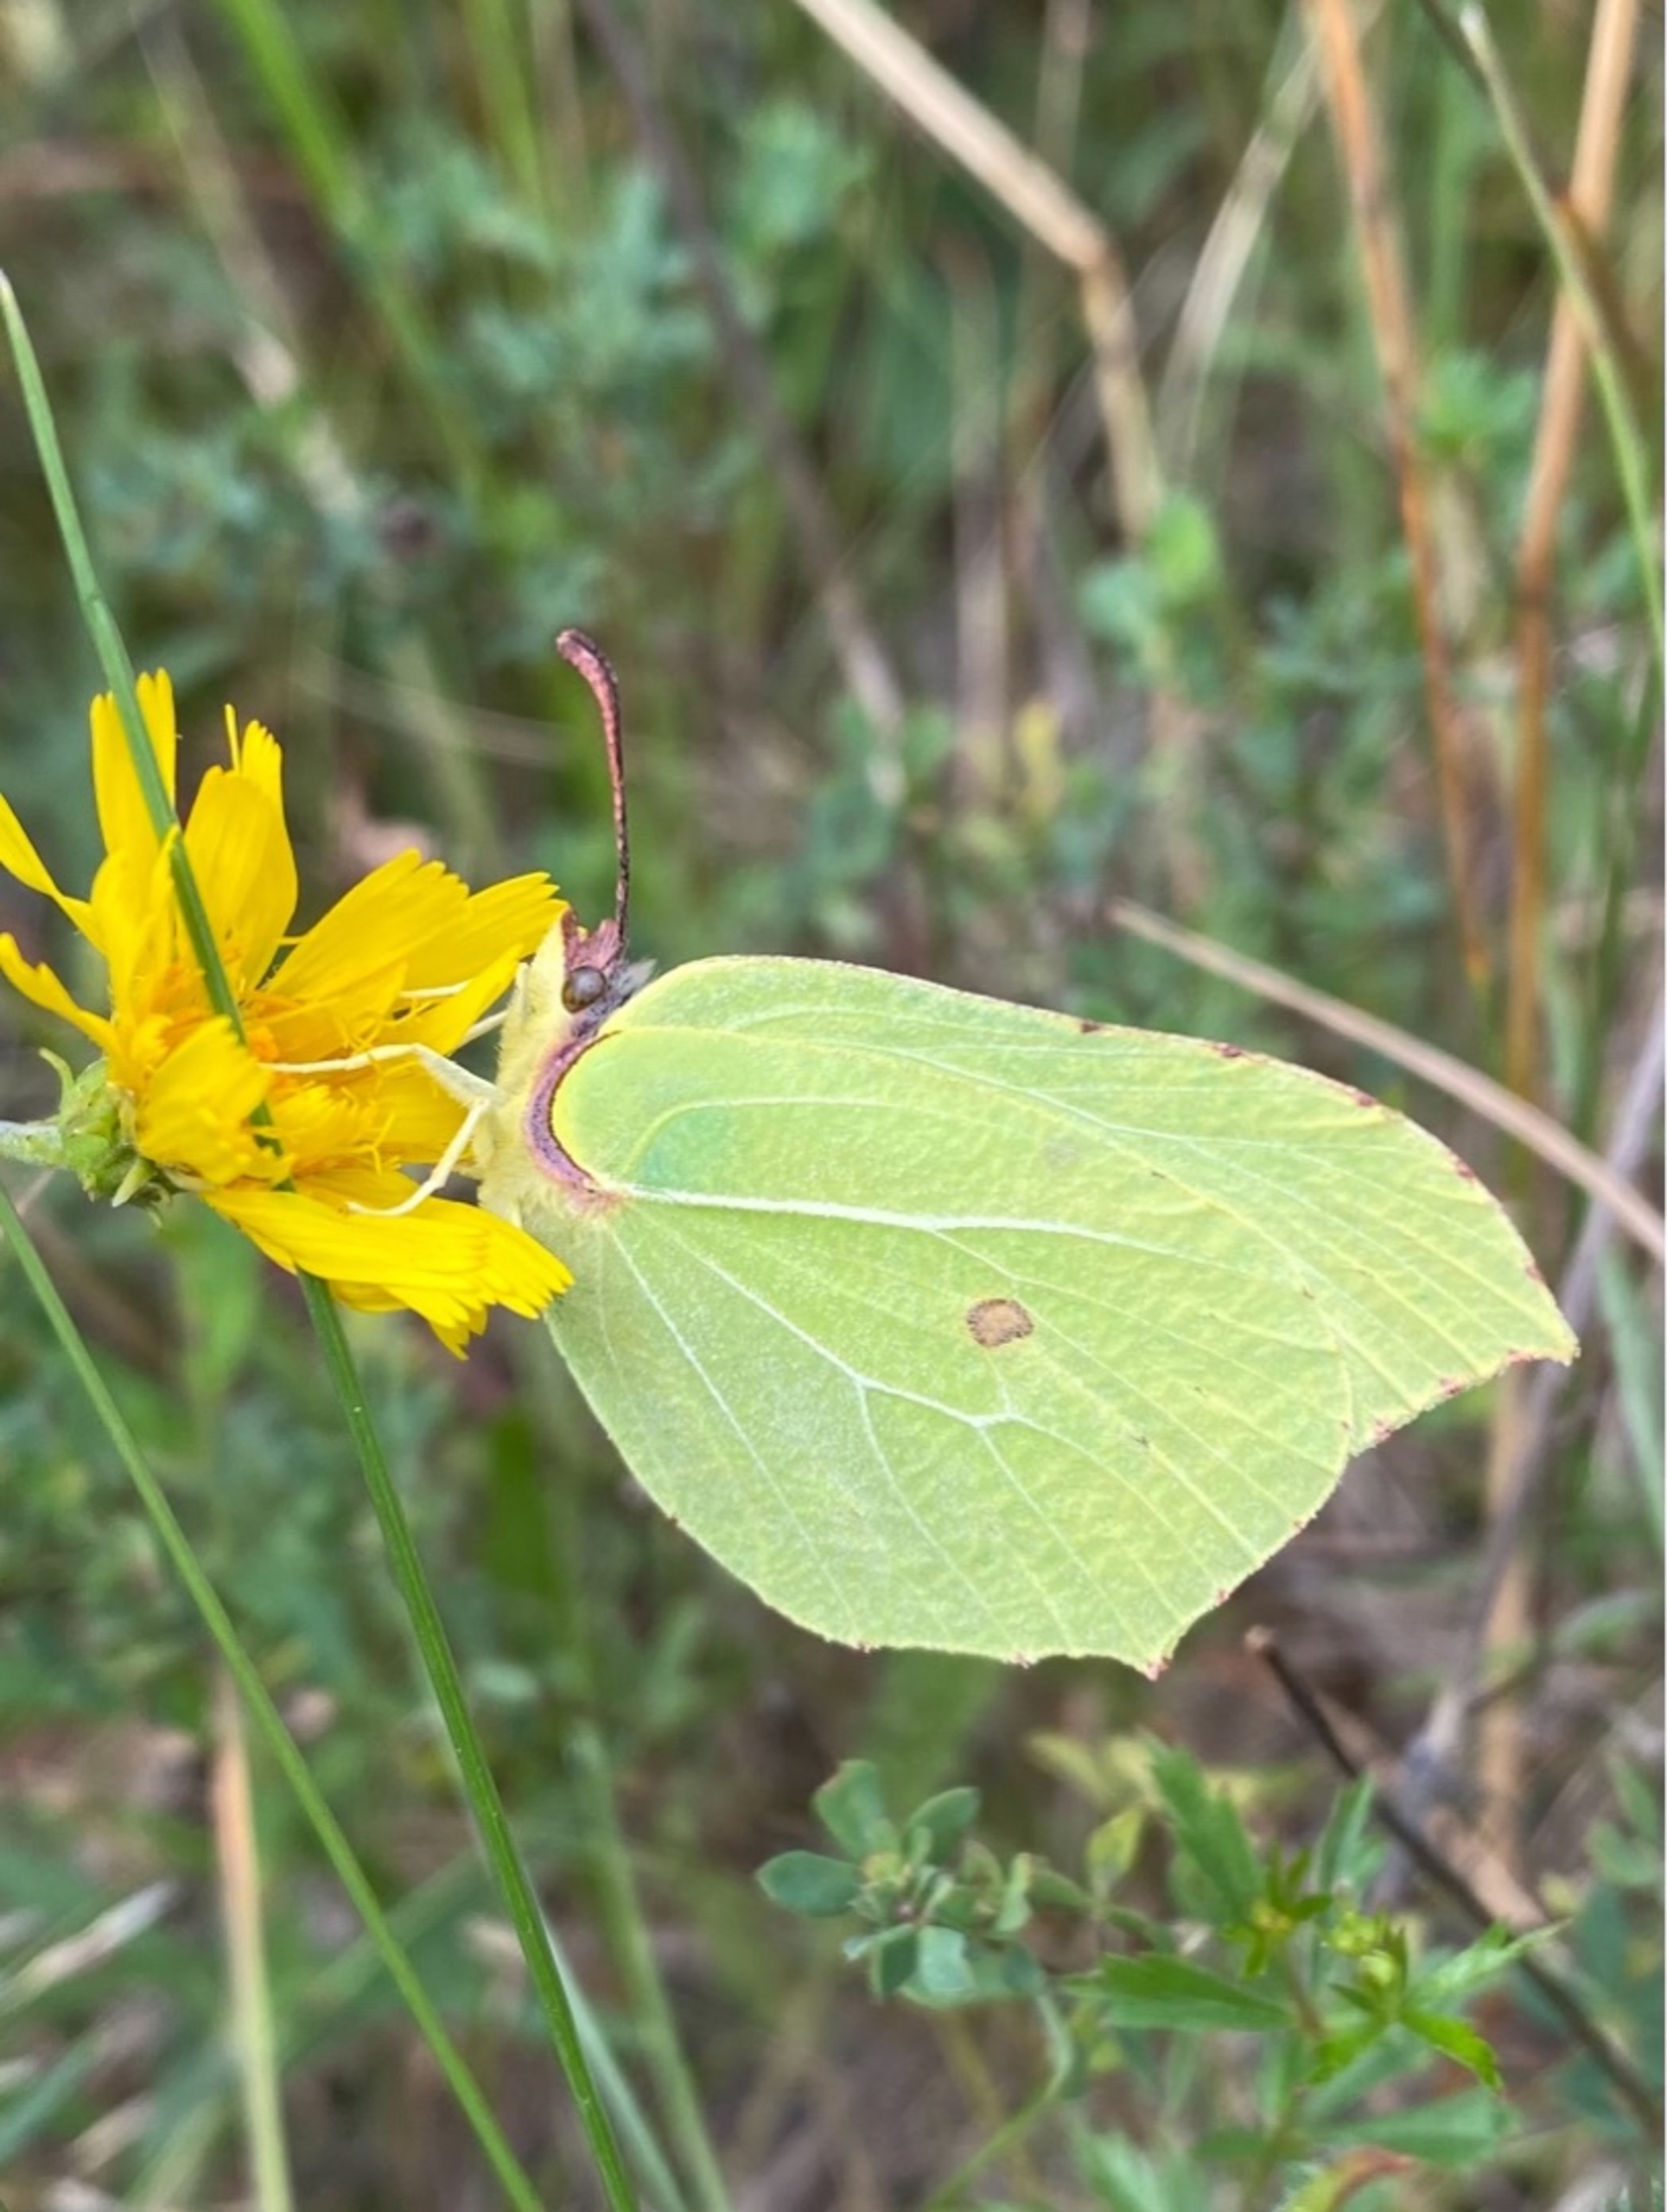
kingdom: Animalia
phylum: Arthropoda
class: Insecta
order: Lepidoptera
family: Pieridae
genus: Gonepteryx
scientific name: Gonepteryx rhamni
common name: Citronsommerfugl
